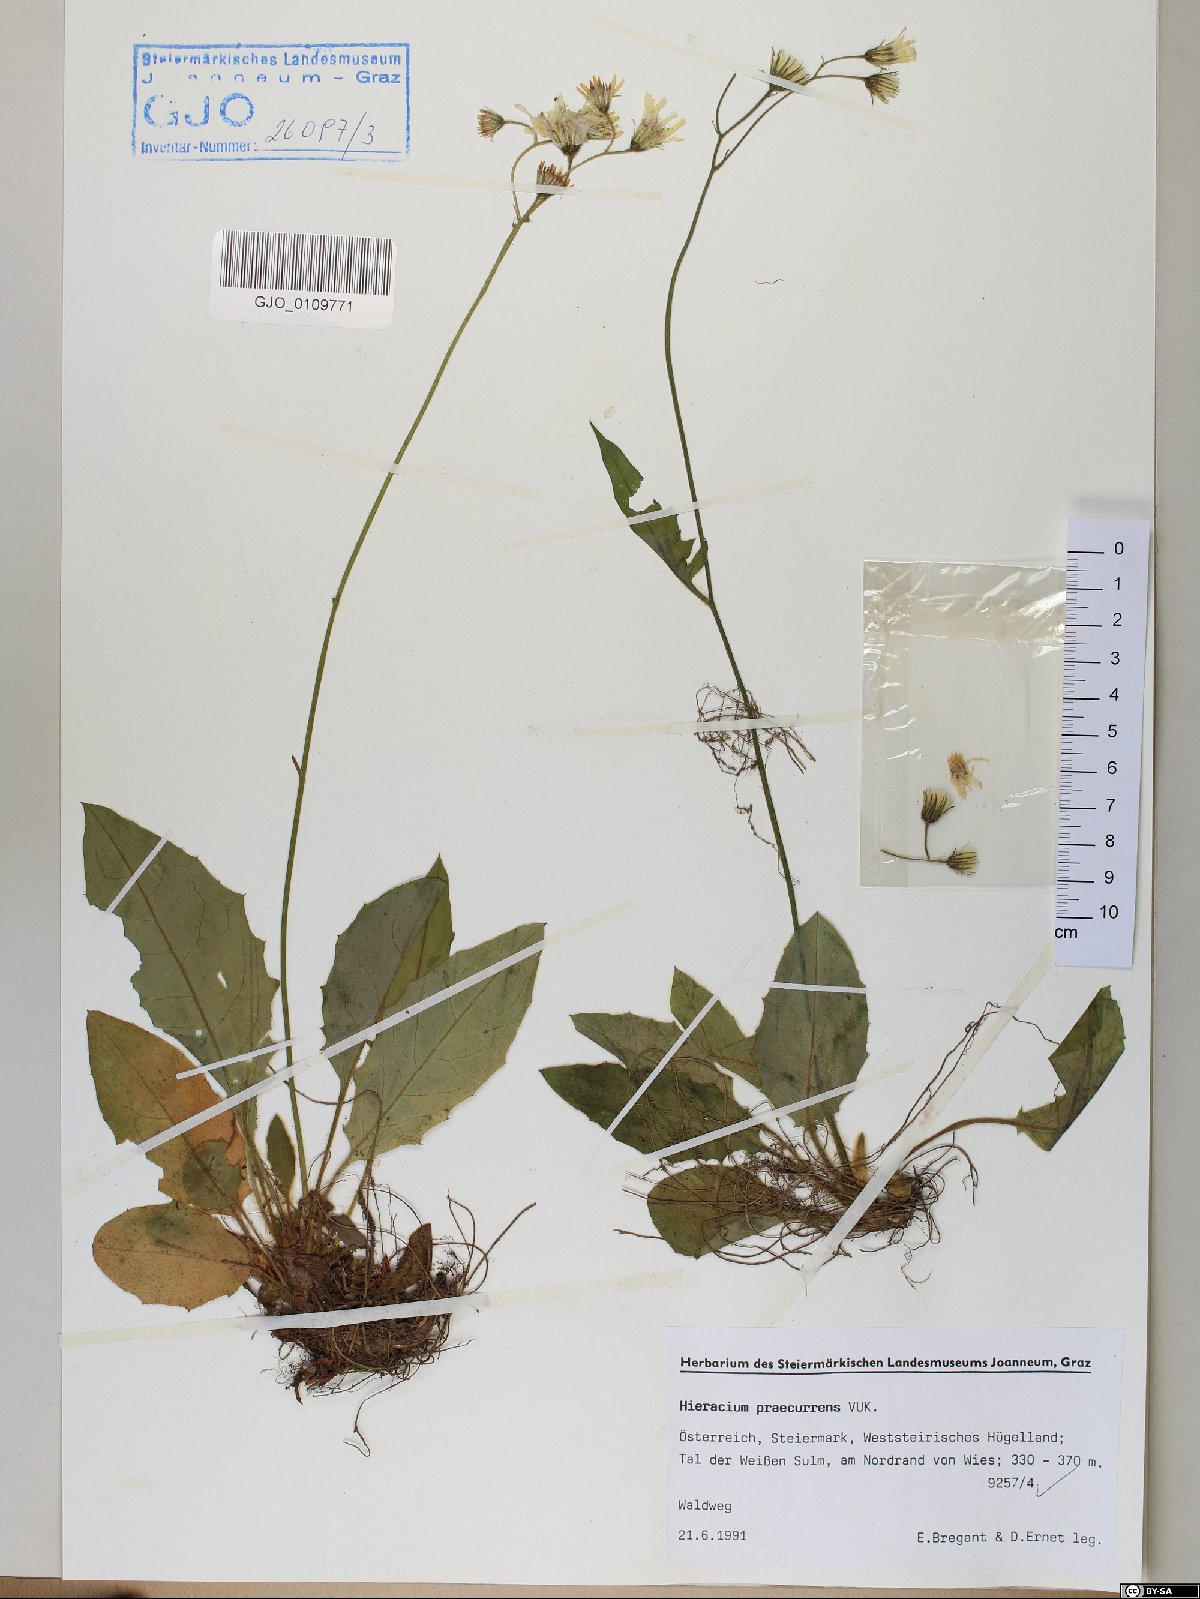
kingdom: Plantae
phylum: Tracheophyta
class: Magnoliopsida
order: Asterales
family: Asteraceae
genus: Hieracium
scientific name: Hieracium rotundatum
